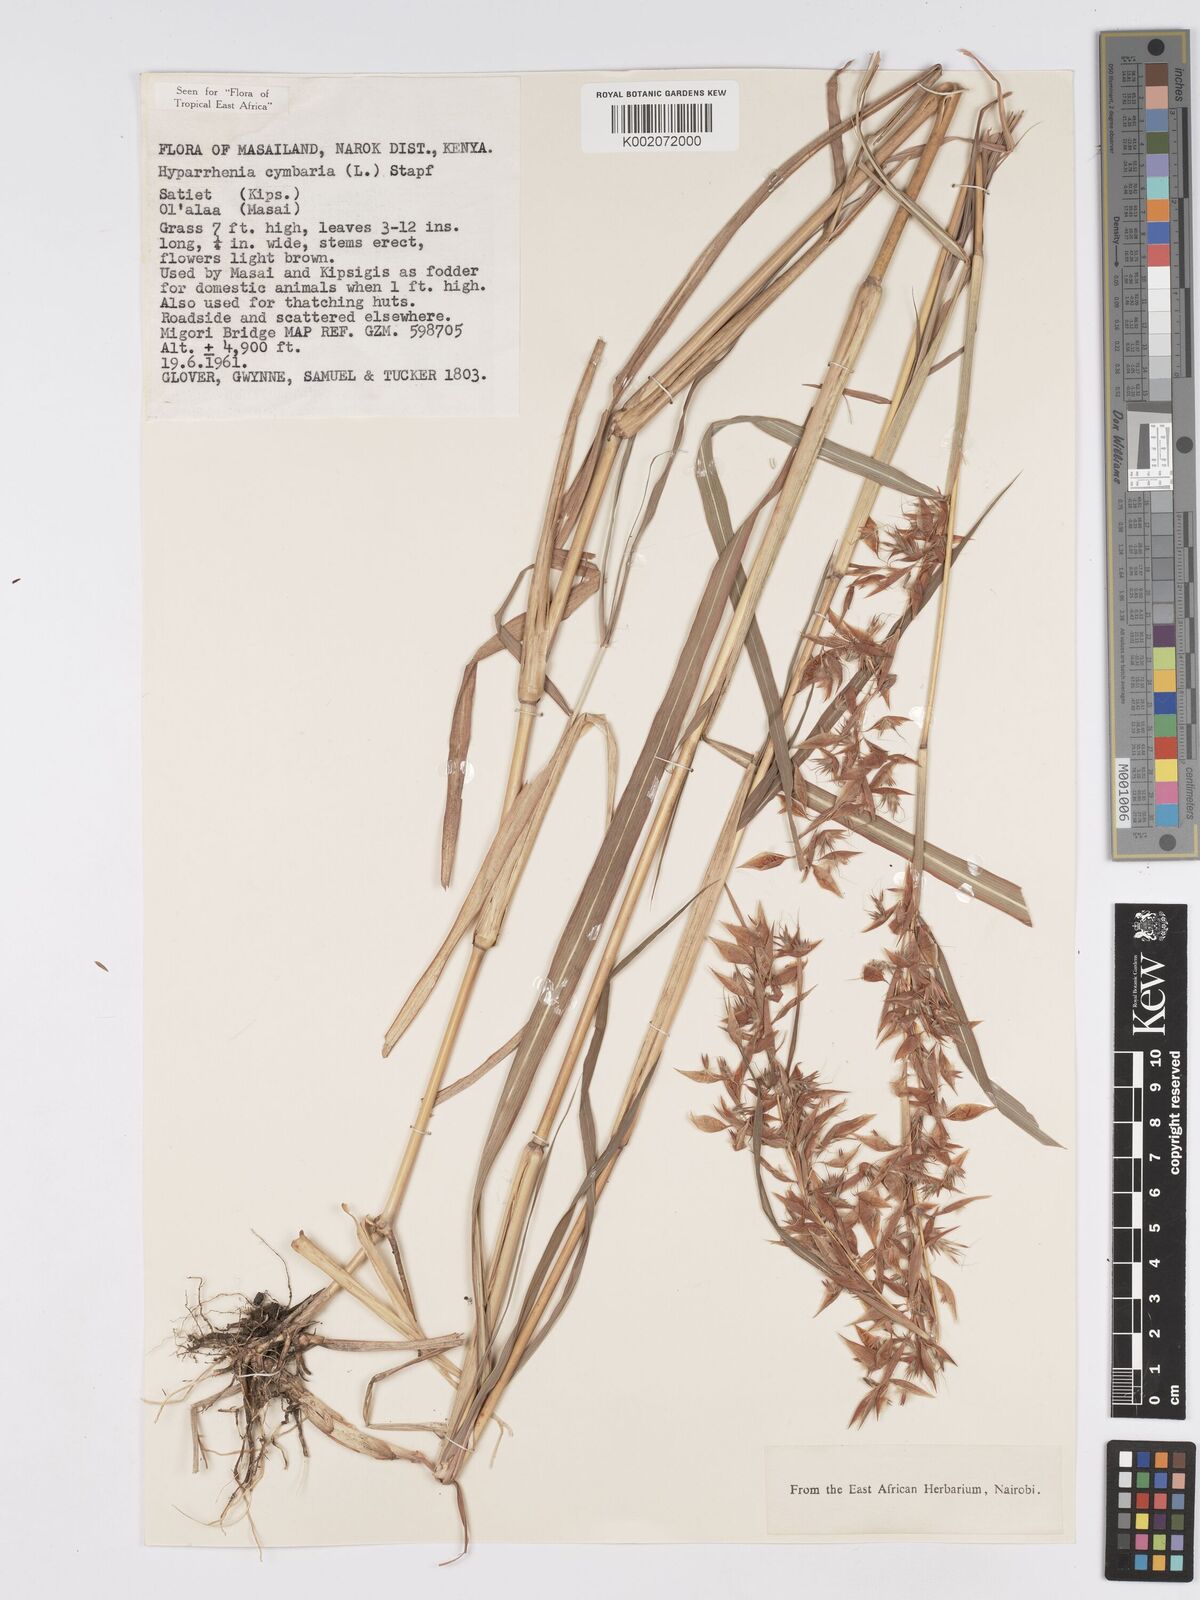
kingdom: Plantae
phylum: Tracheophyta
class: Liliopsida
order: Poales
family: Poaceae
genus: Hyparrhenia
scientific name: Hyparrhenia cymbaria
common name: Boat thatching grass
